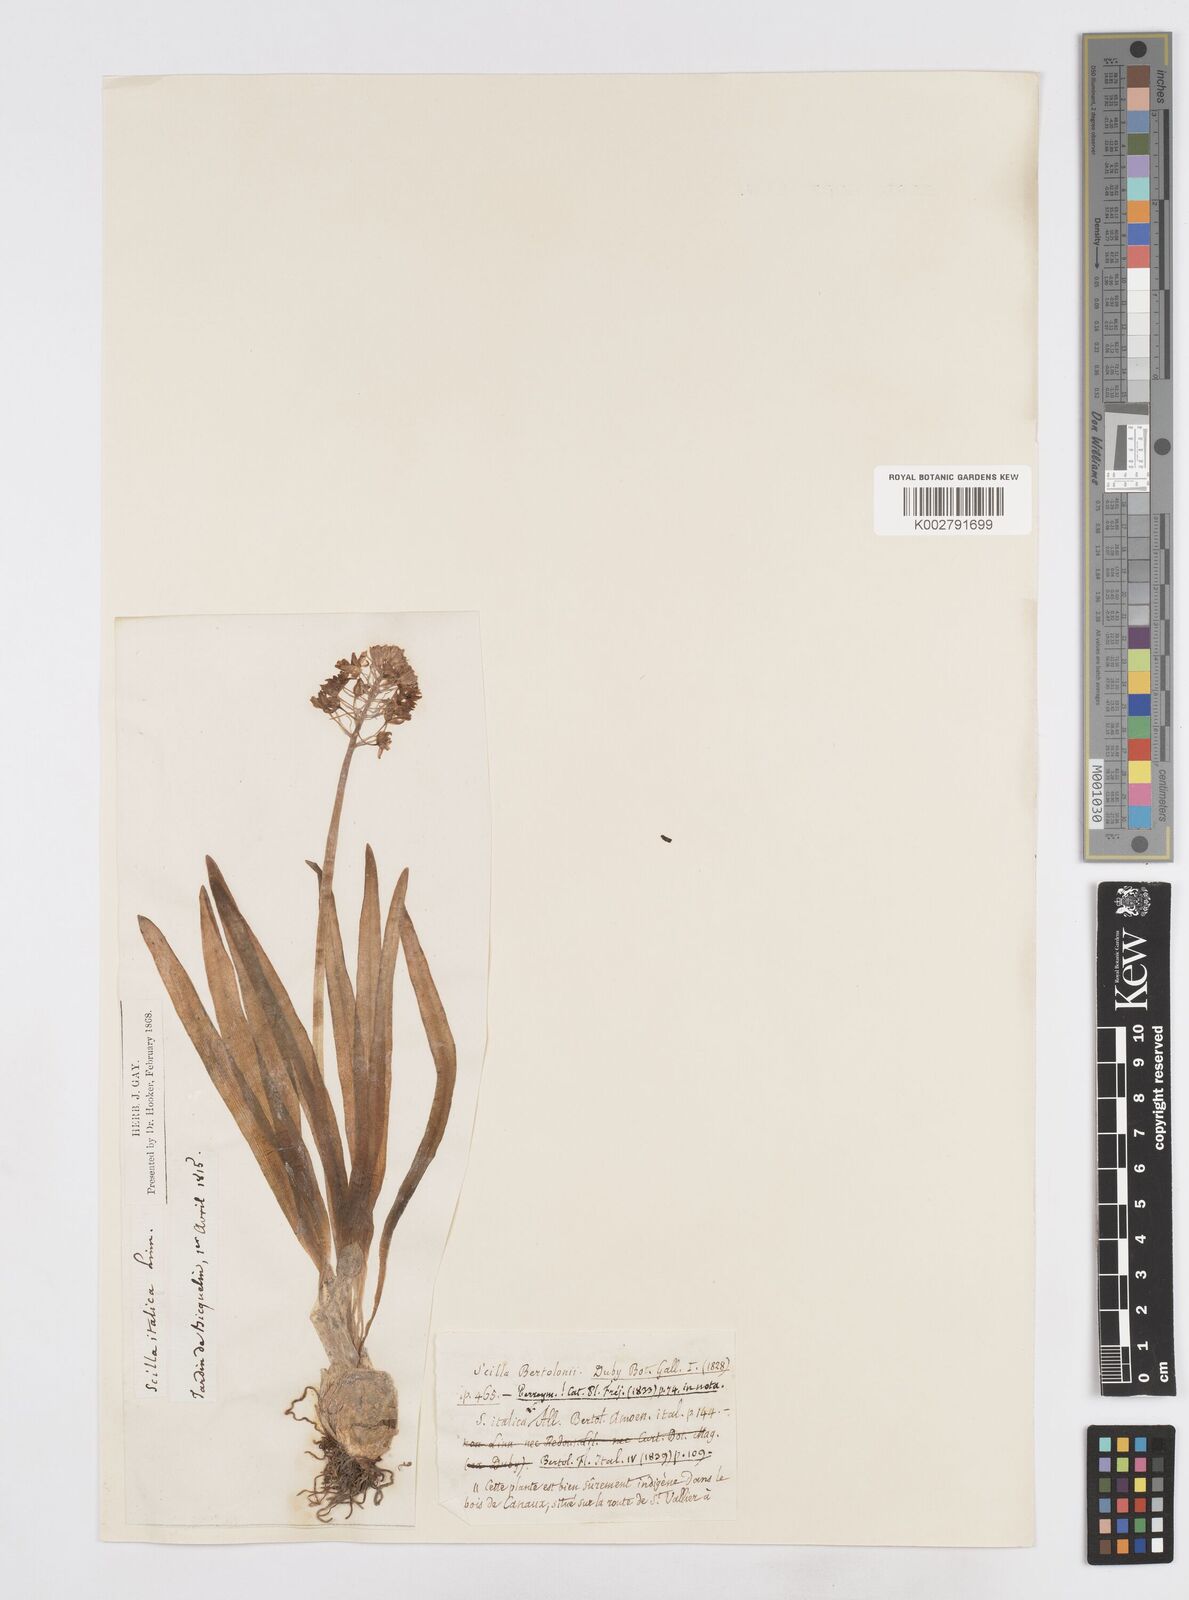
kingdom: Plantae
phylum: Tracheophyta
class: Liliopsida
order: Asparagales
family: Asparagaceae
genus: Hyacinthoides
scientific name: Hyacinthoides italica
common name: Italian bluebell
